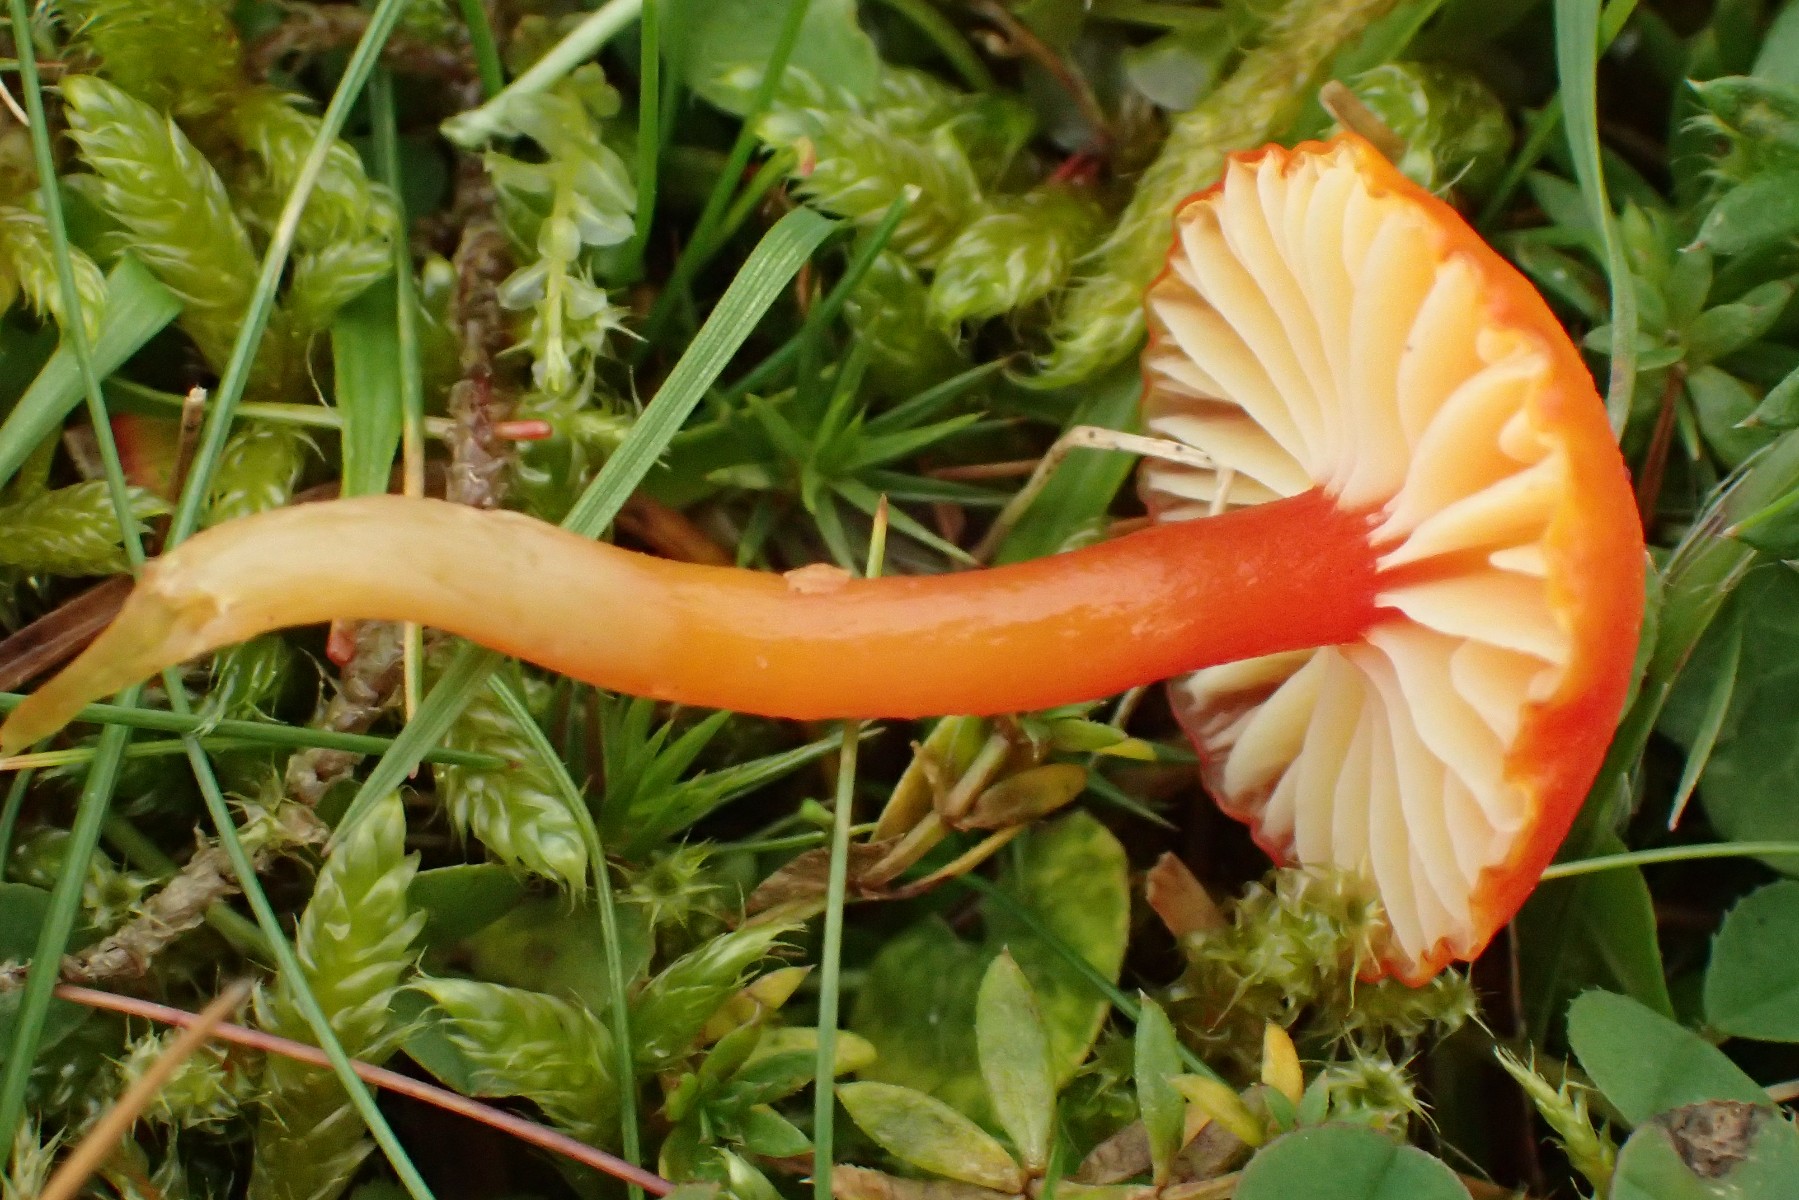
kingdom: Fungi
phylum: Basidiomycota
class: Agaricomycetes
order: Agaricales
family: Hygrophoraceae
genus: Hygrocybe
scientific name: Hygrocybe insipida
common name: liden vokshat
